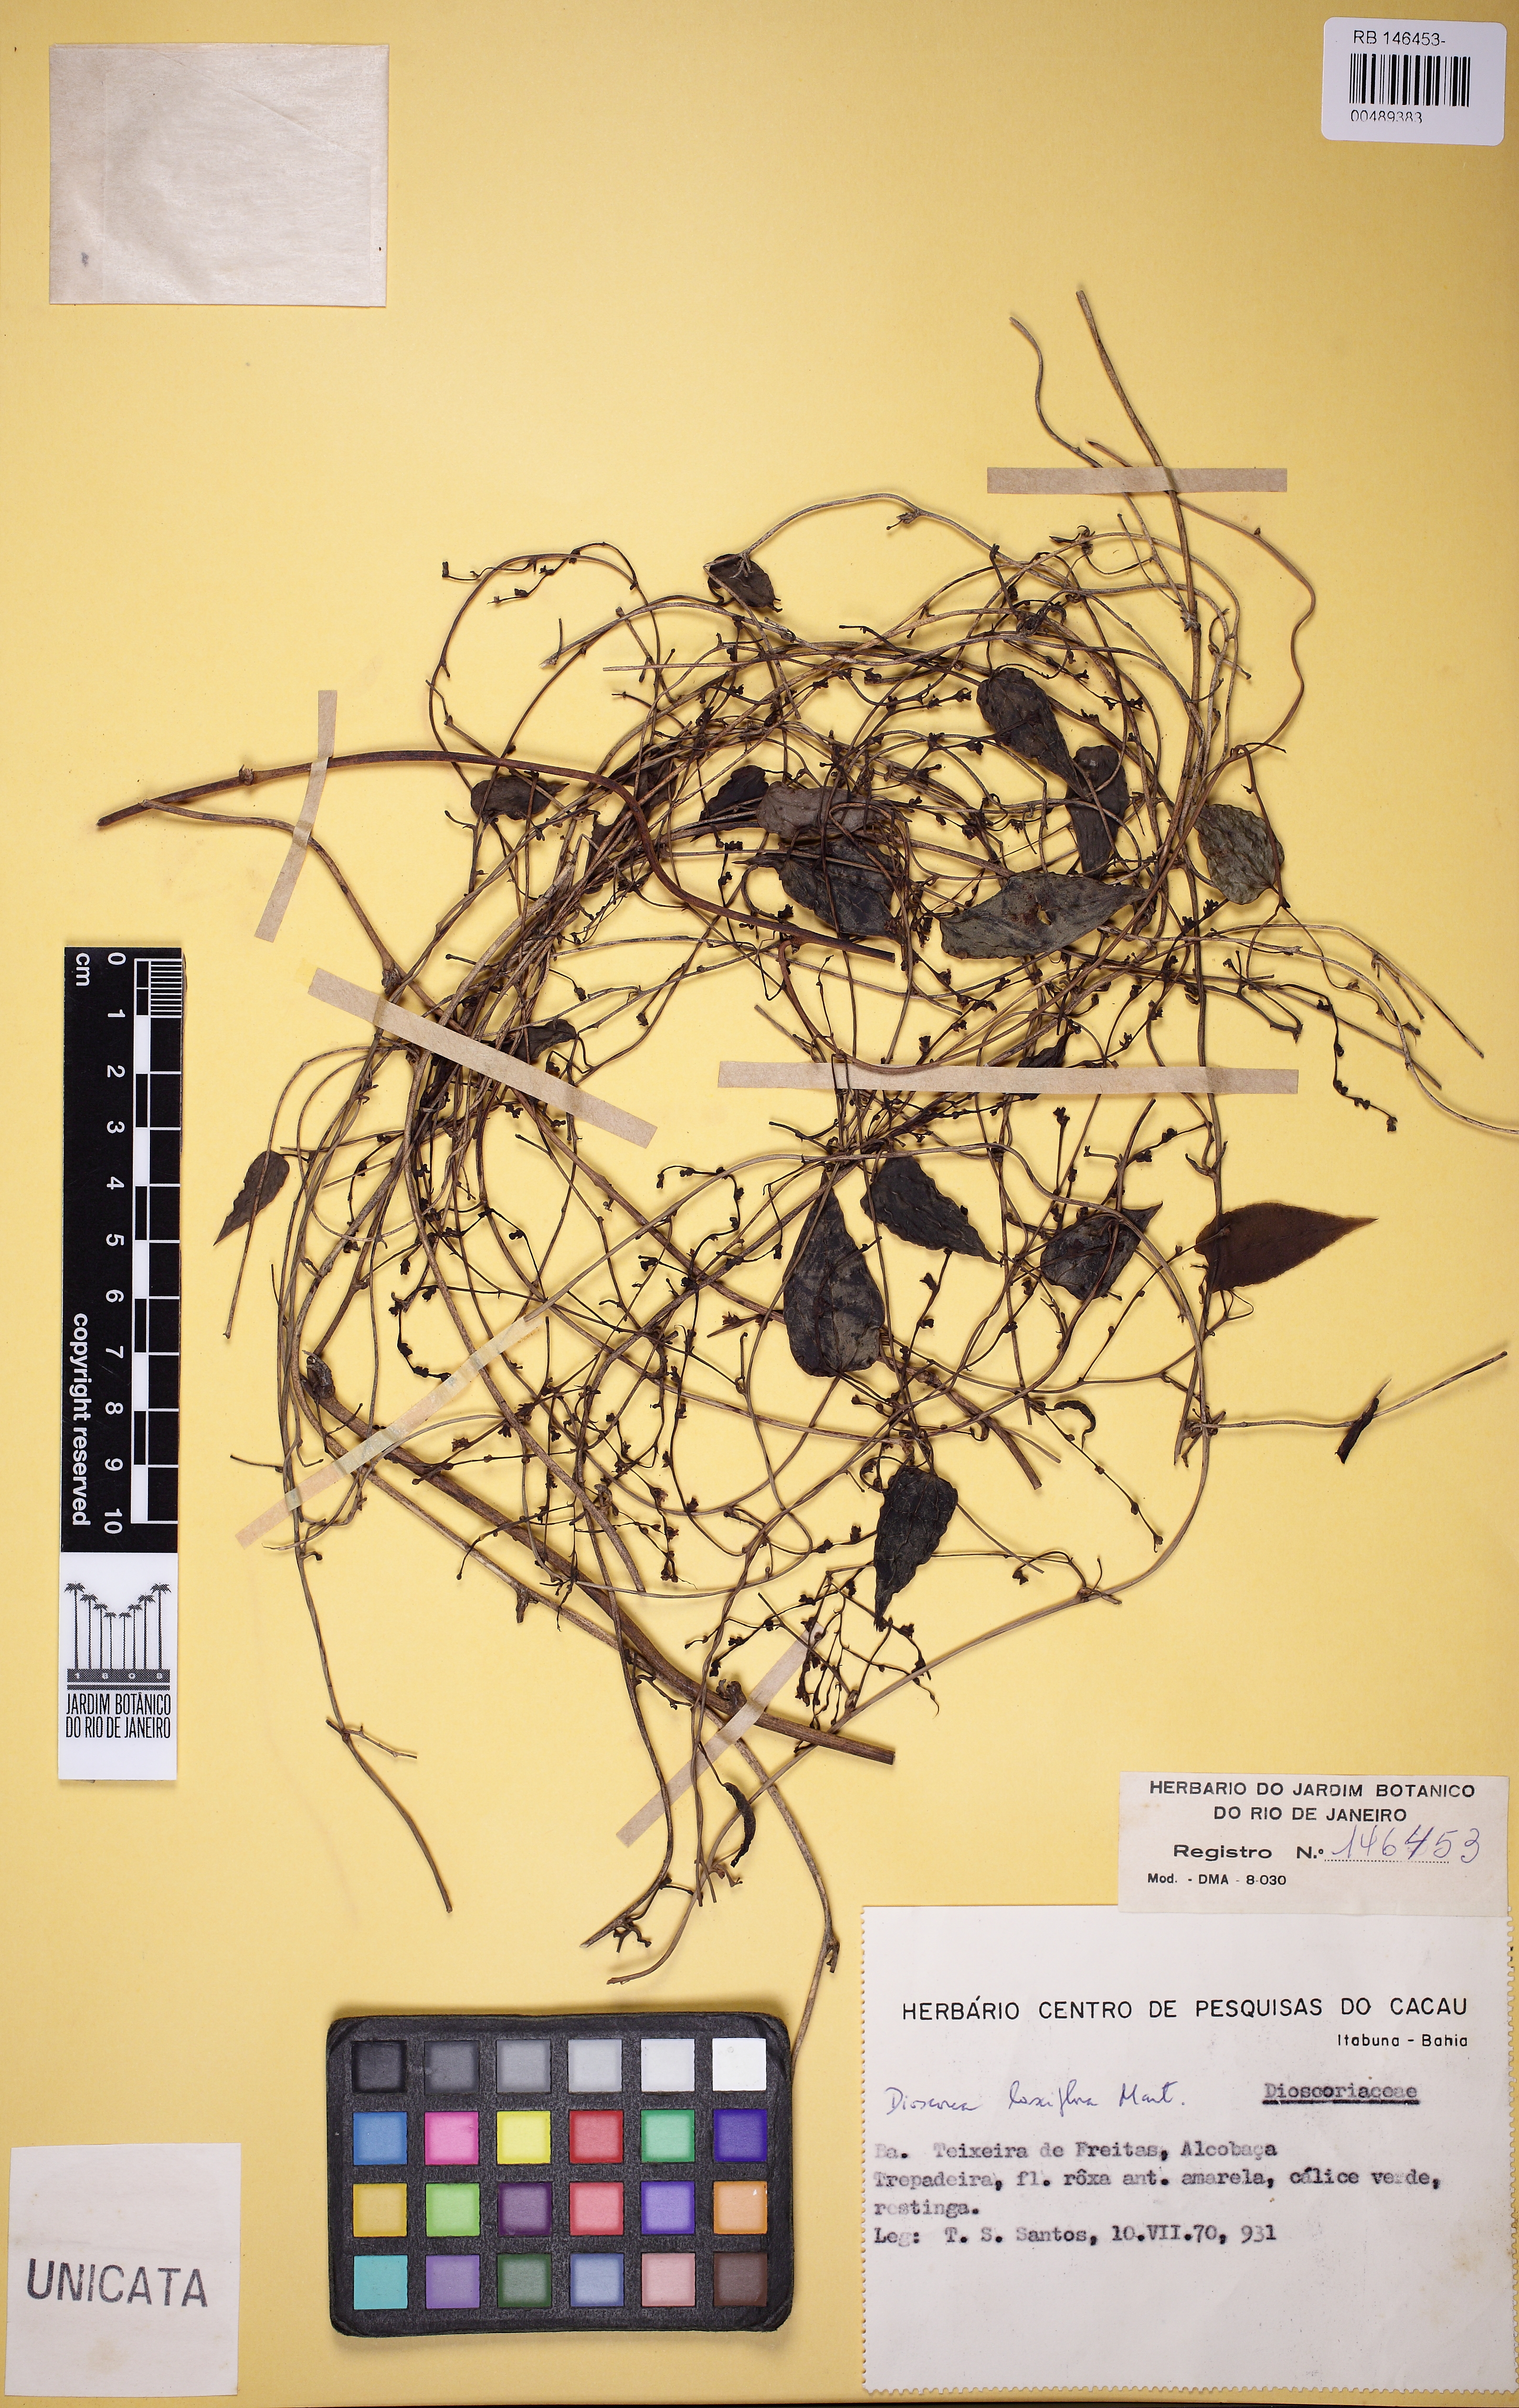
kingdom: Plantae
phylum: Tracheophyta
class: Liliopsida
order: Dioscoreales
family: Dioscoreaceae
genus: Dioscorea
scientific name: Dioscorea laxiflora
